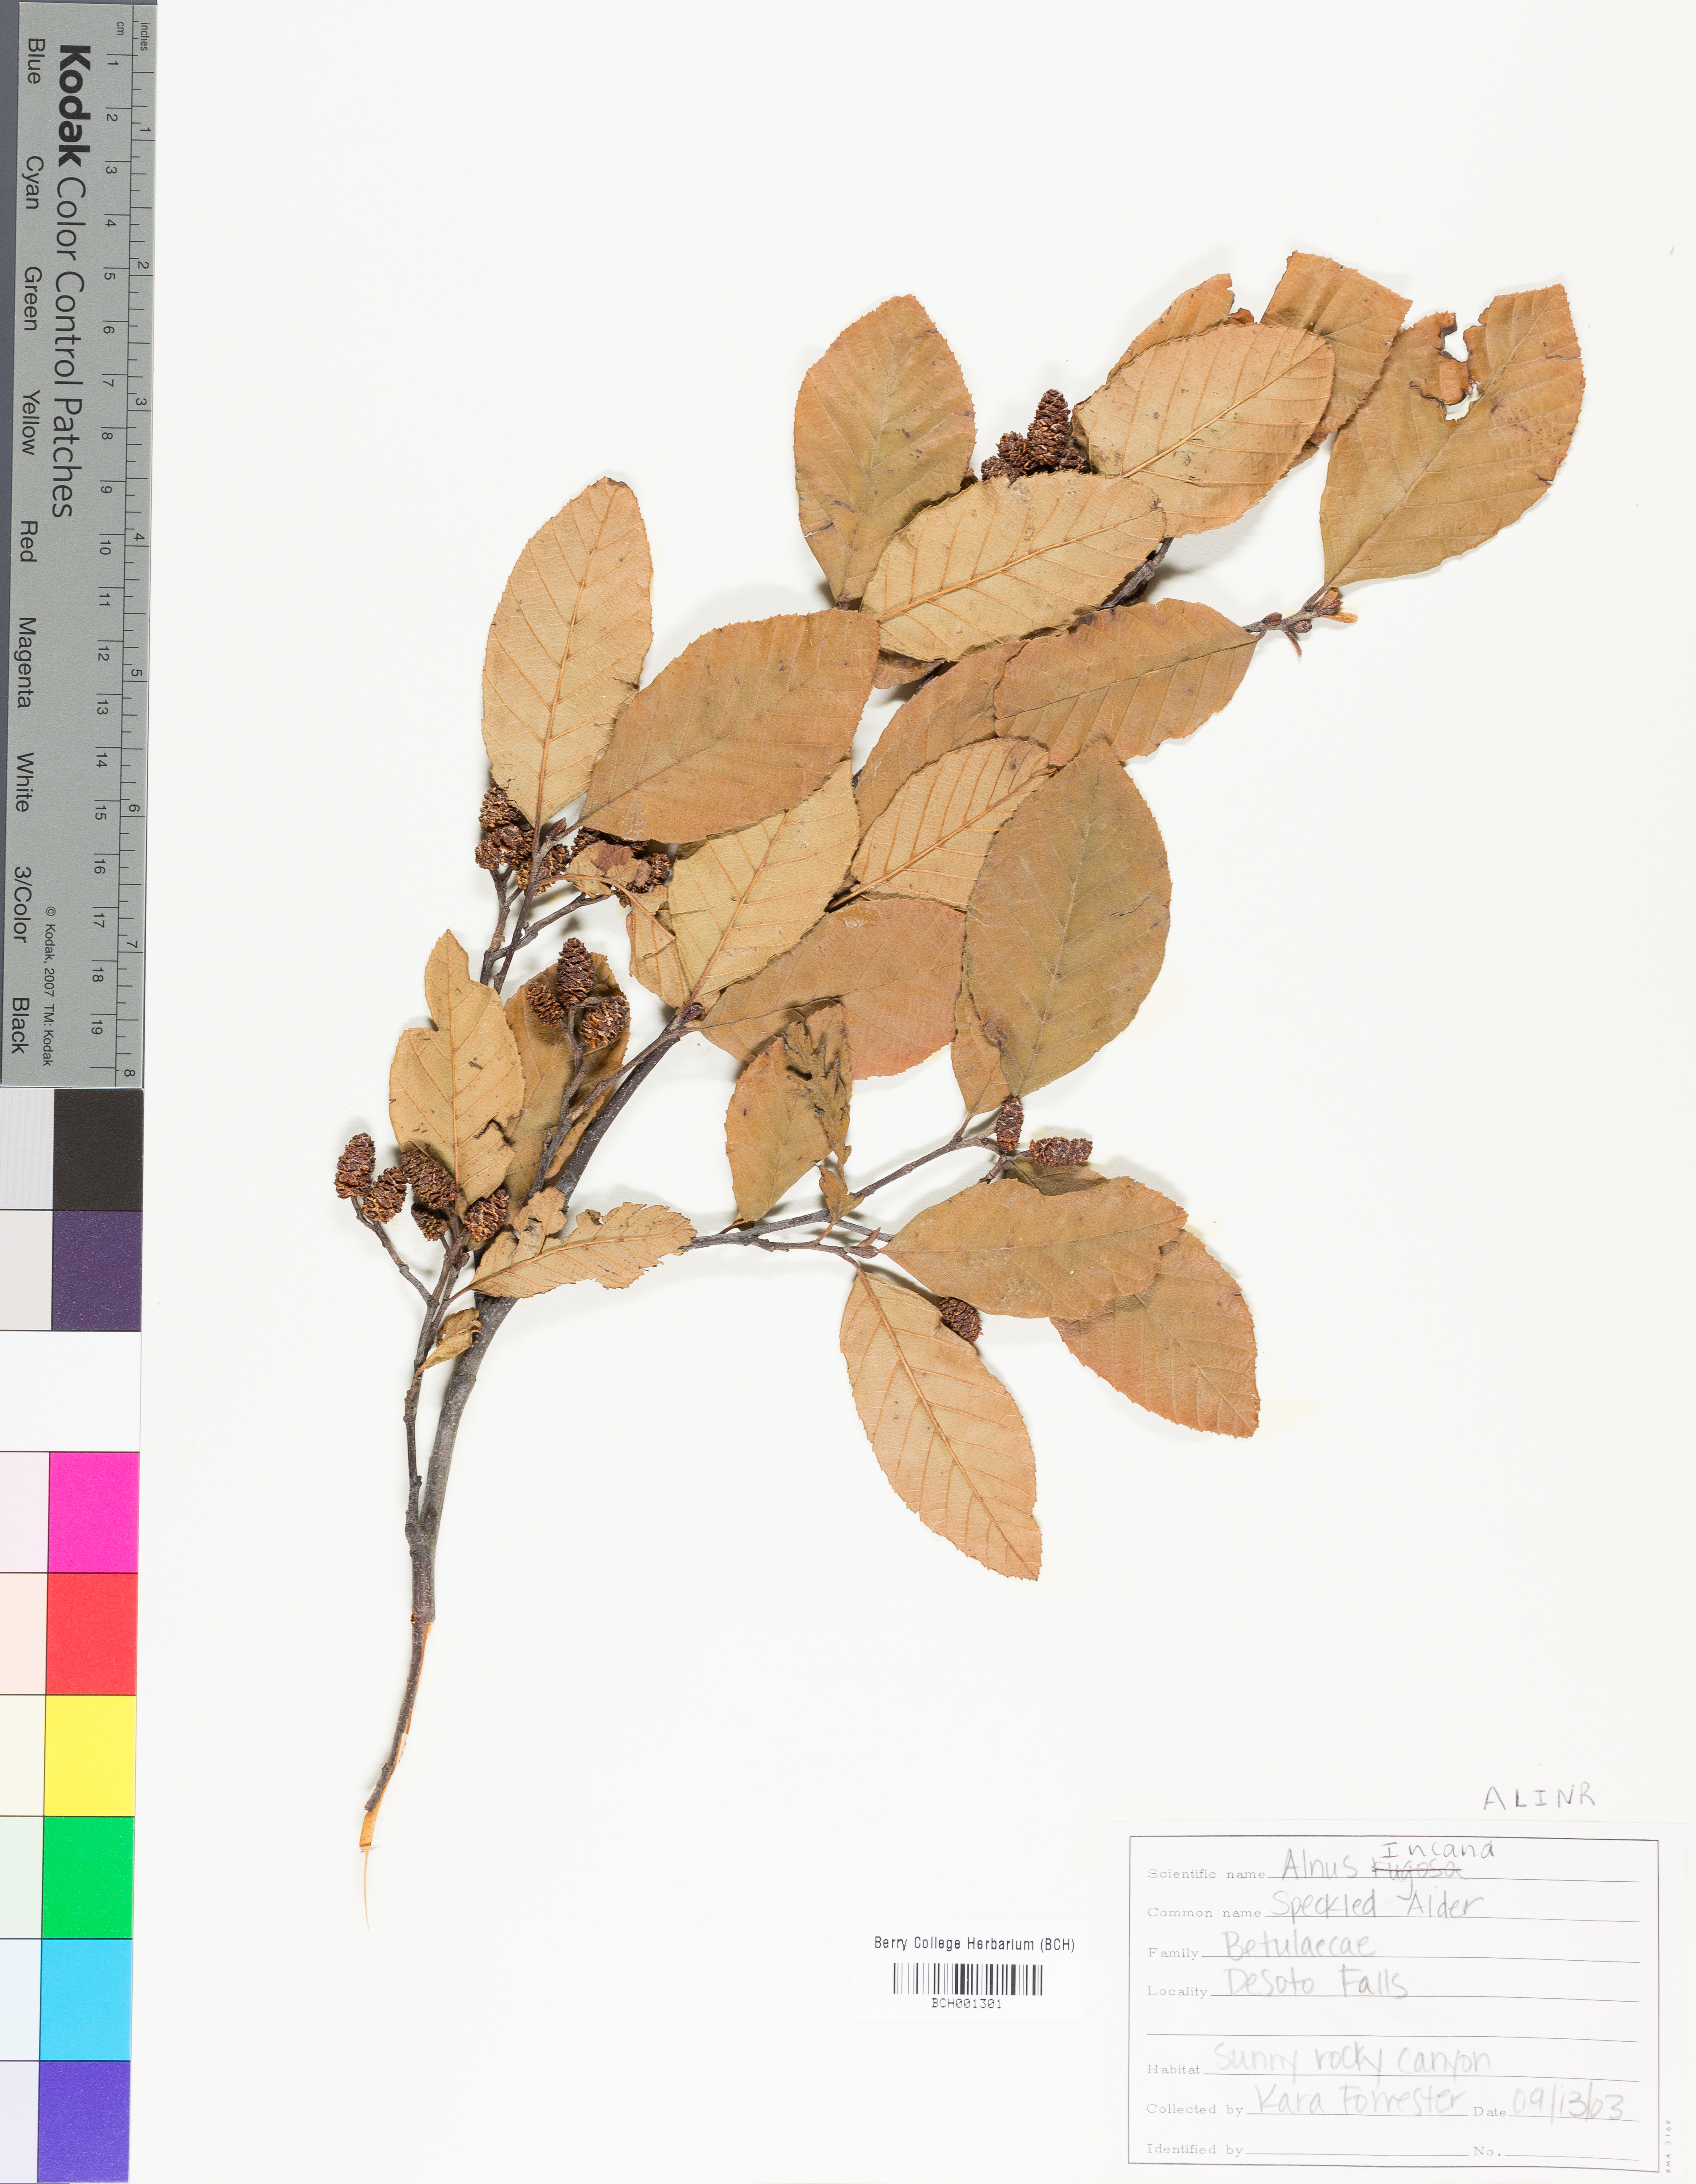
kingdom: Plantae
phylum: Tracheophyta
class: Magnoliopsida
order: Fagales
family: Betulaceae
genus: Alnus
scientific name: Alnus incana
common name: Grey alder
